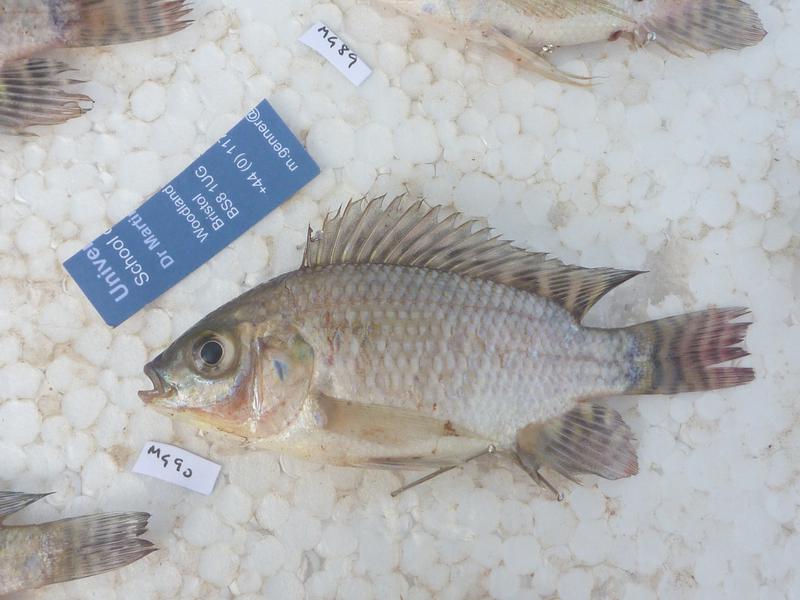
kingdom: Animalia
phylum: Chordata
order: Perciformes
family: Cichlidae
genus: Oreochromis
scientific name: Oreochromis niloticus
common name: Nile tilapia
